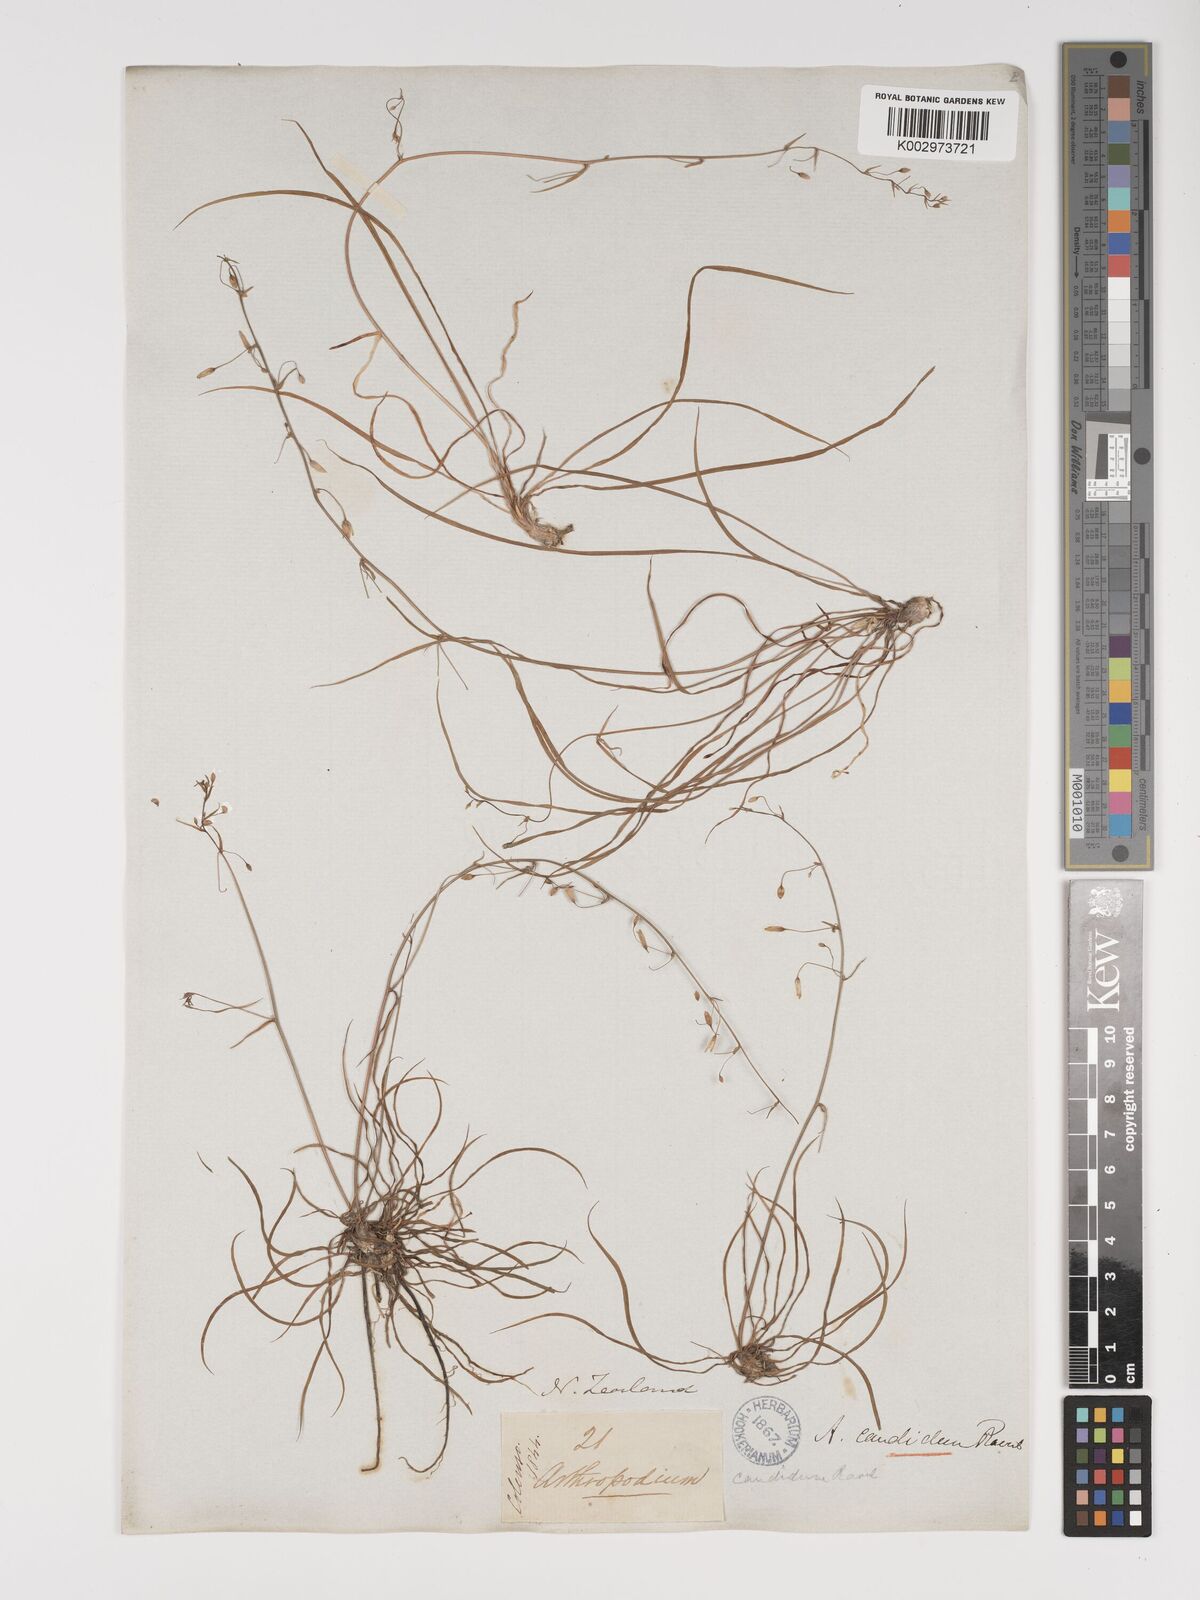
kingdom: Plantae
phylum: Tracheophyta
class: Liliopsida
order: Asparagales
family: Asparagaceae
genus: Arthropodium
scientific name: Arthropodium candidum
